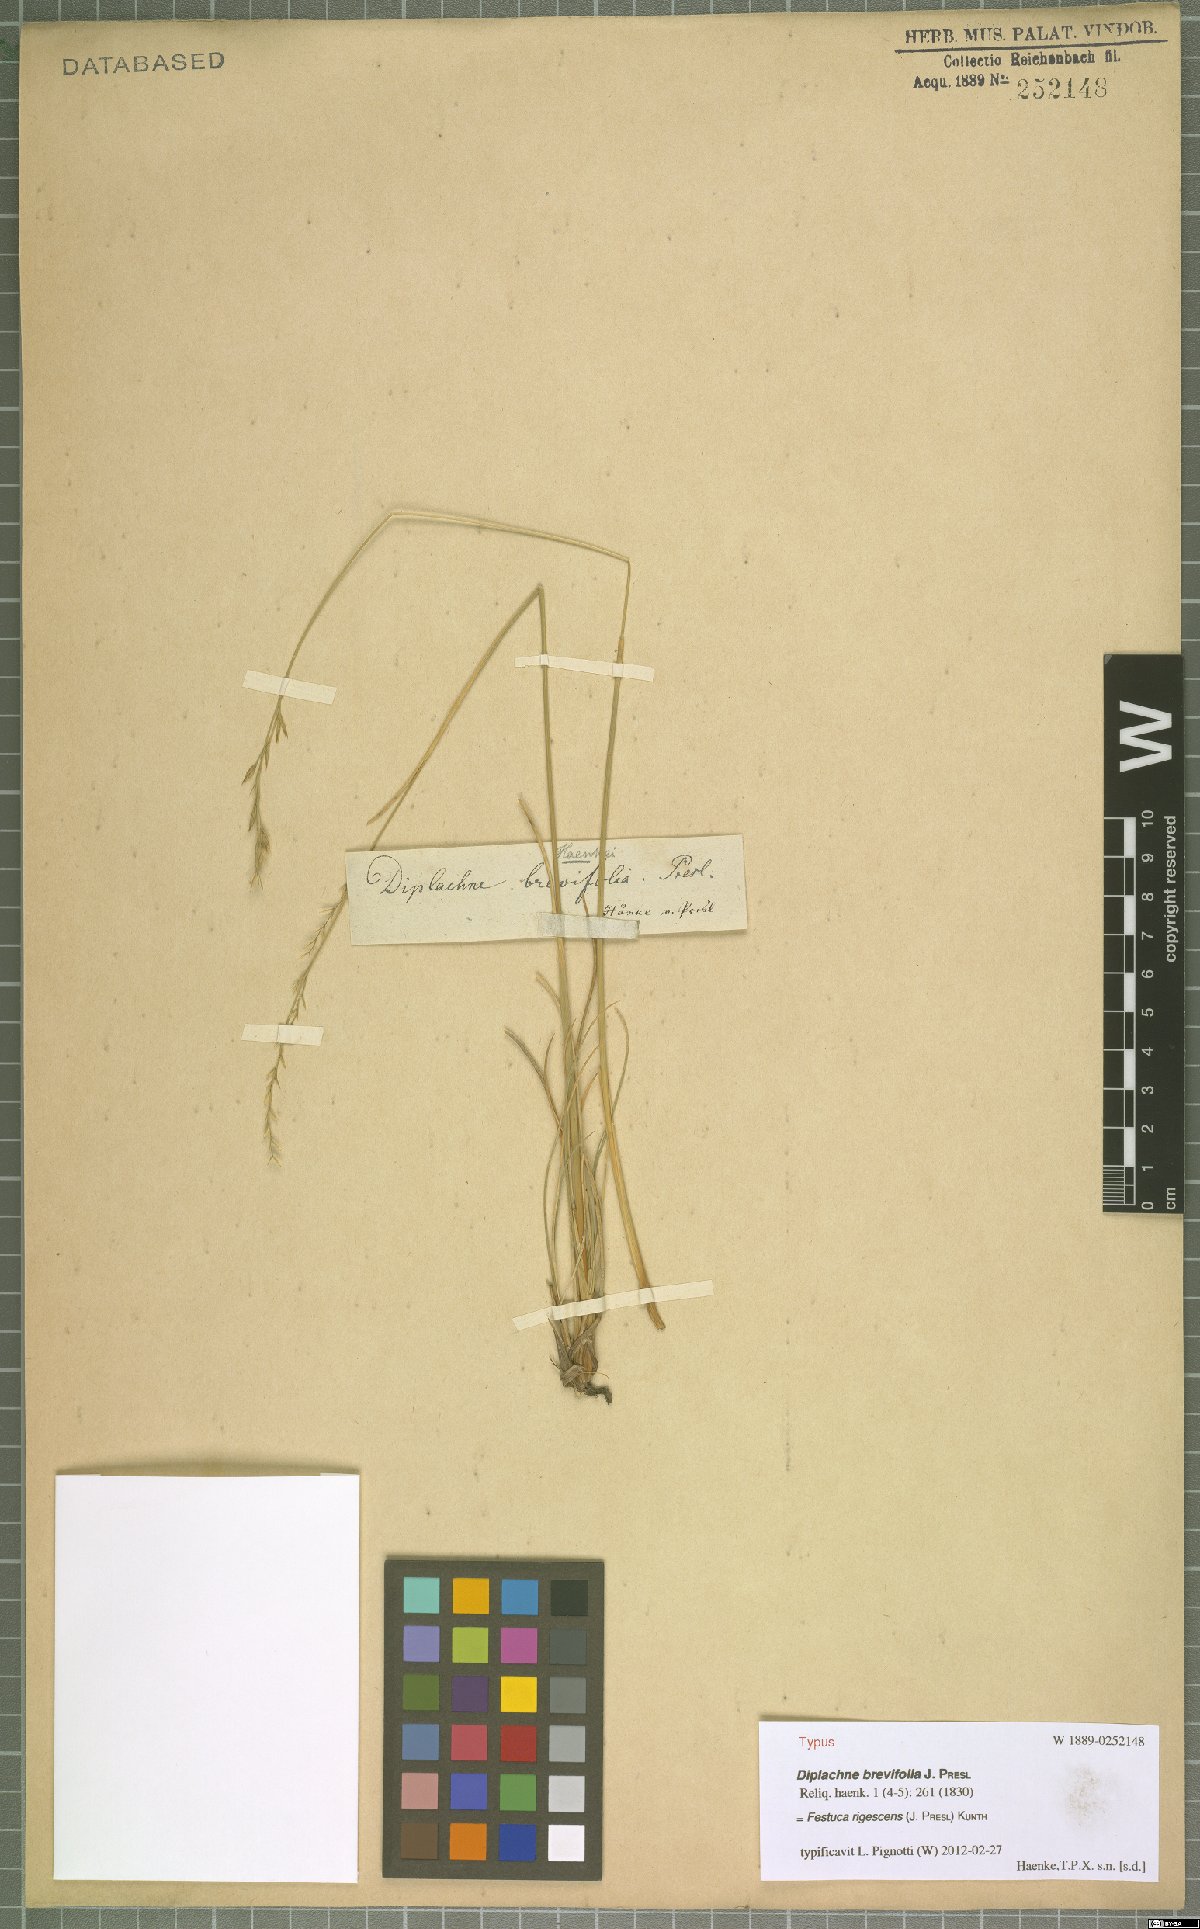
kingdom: Plantae
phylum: Tracheophyta
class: Liliopsida
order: Poales
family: Poaceae
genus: Festuca
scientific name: Festuca rigescens
